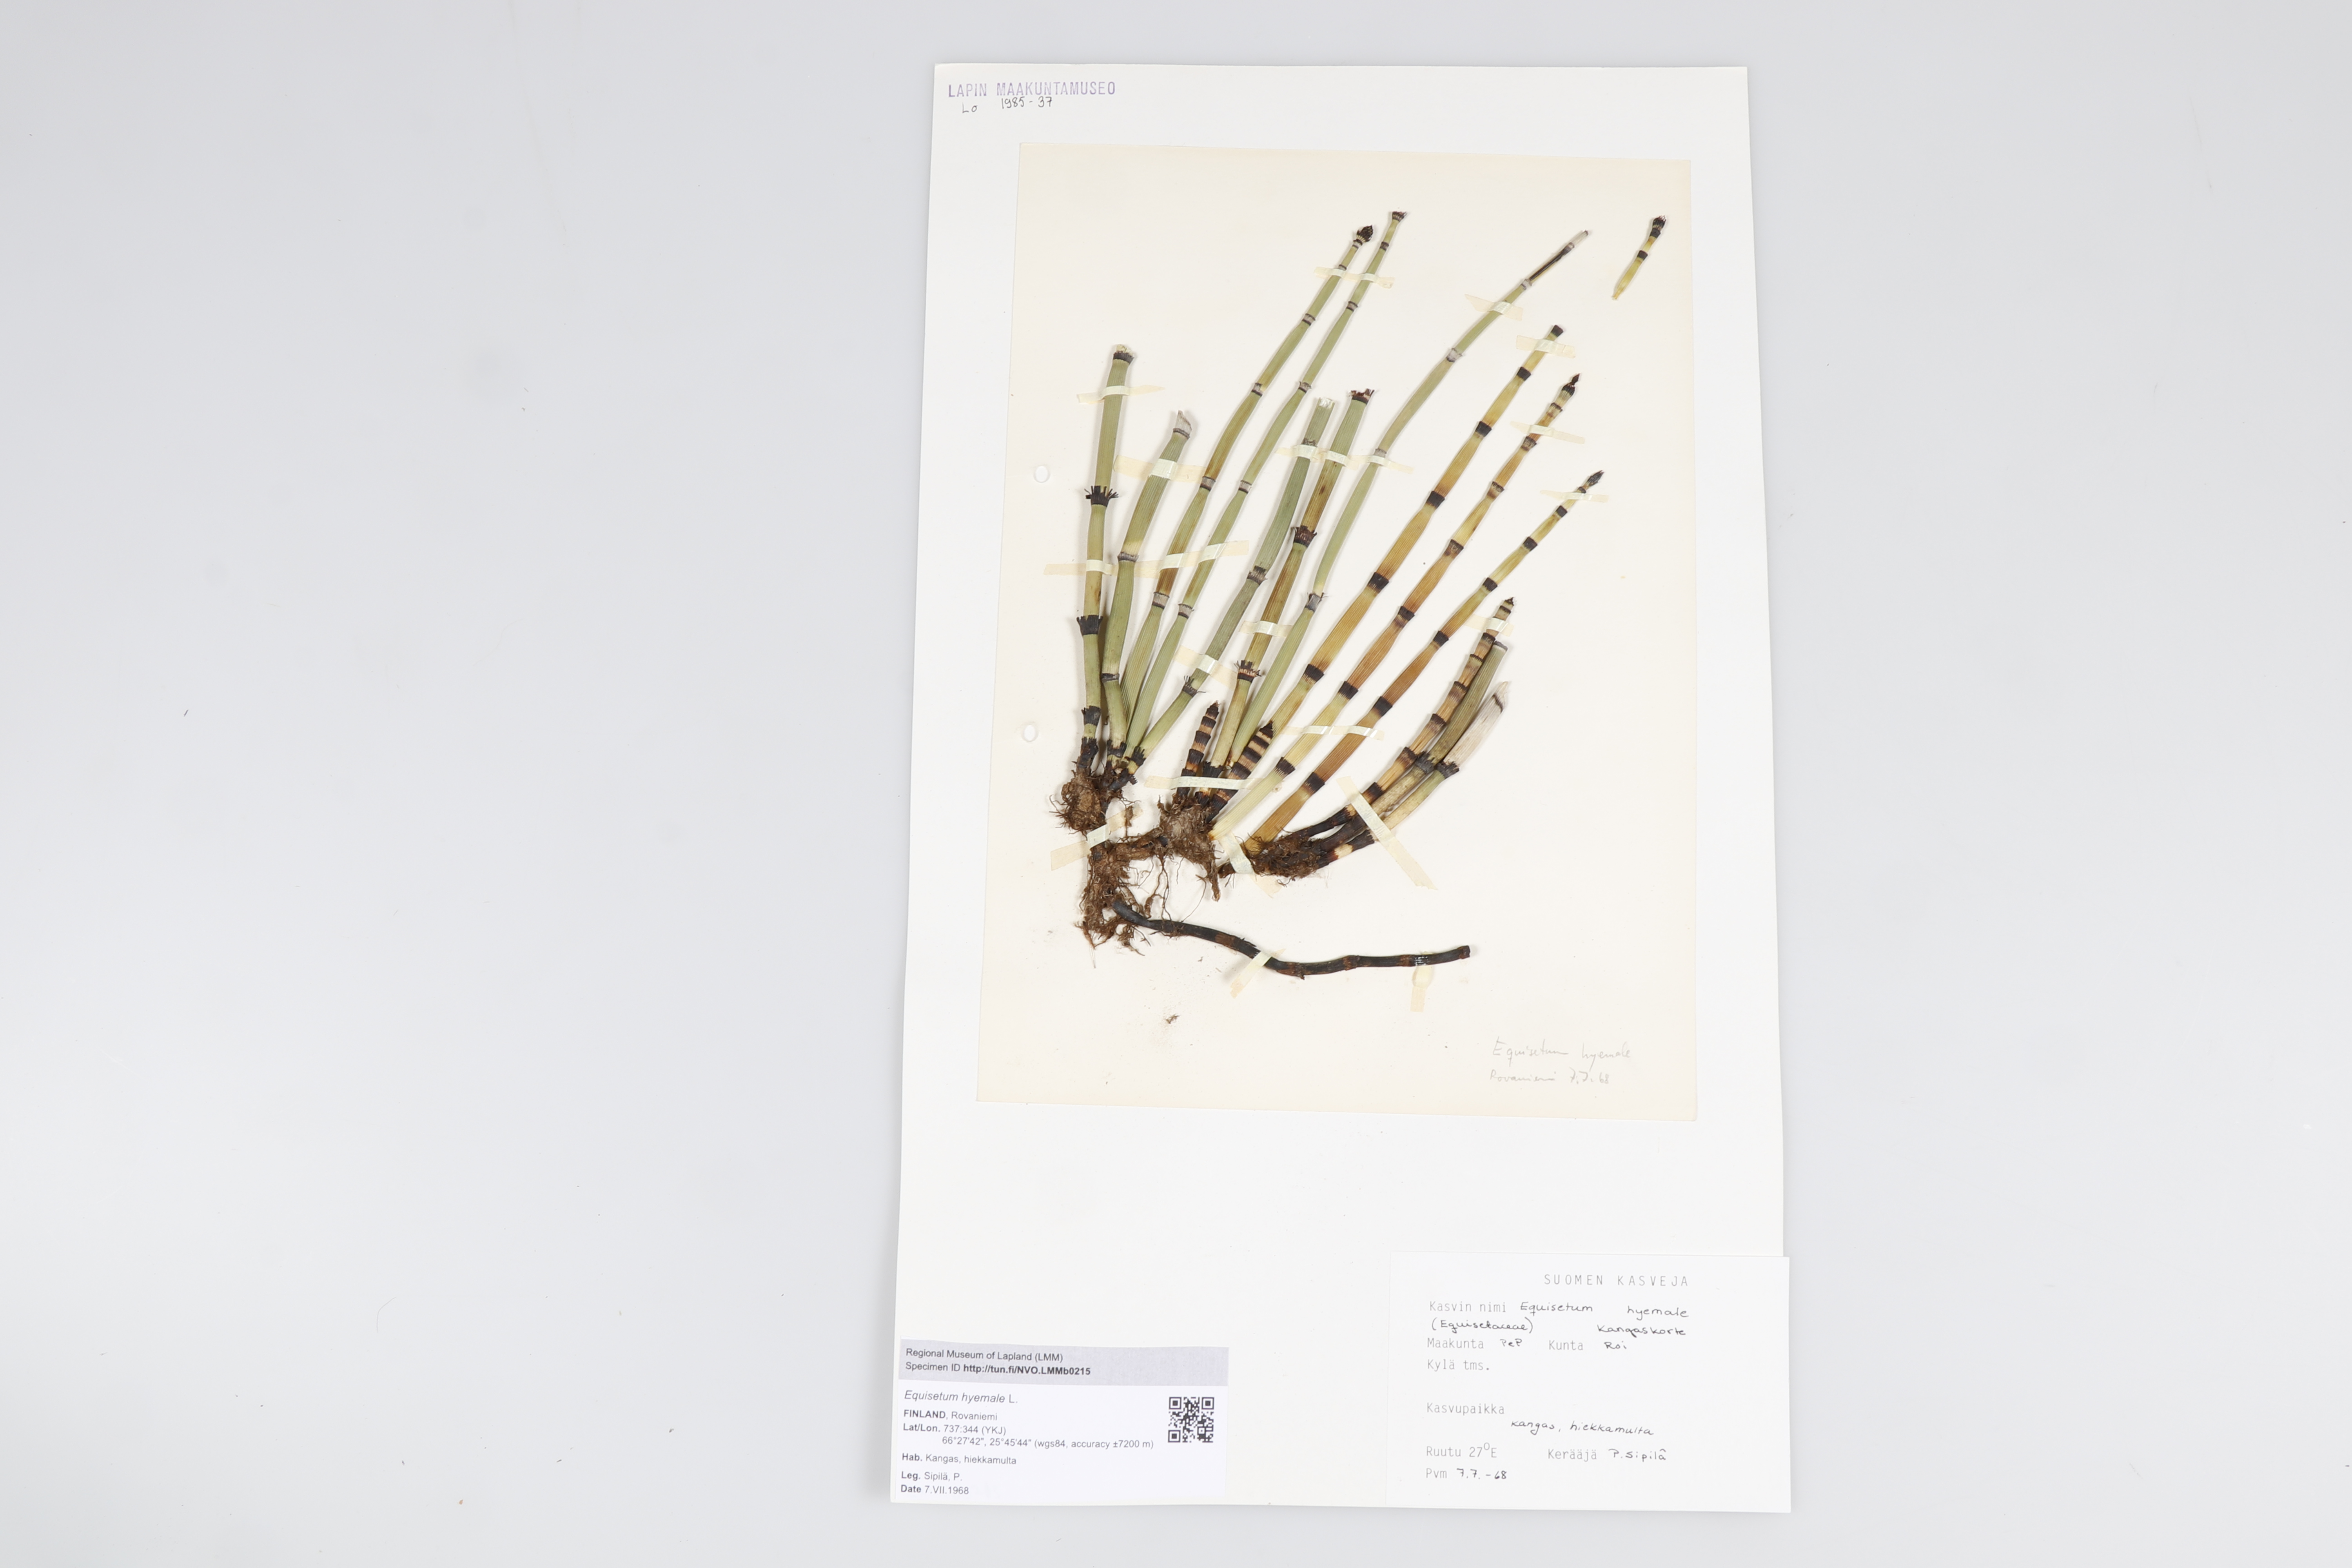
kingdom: Plantae
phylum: Tracheophyta
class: Polypodiopsida
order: Equisetales
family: Equisetaceae
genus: Equisetum
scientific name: Equisetum hyemale
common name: Rough horsetail
